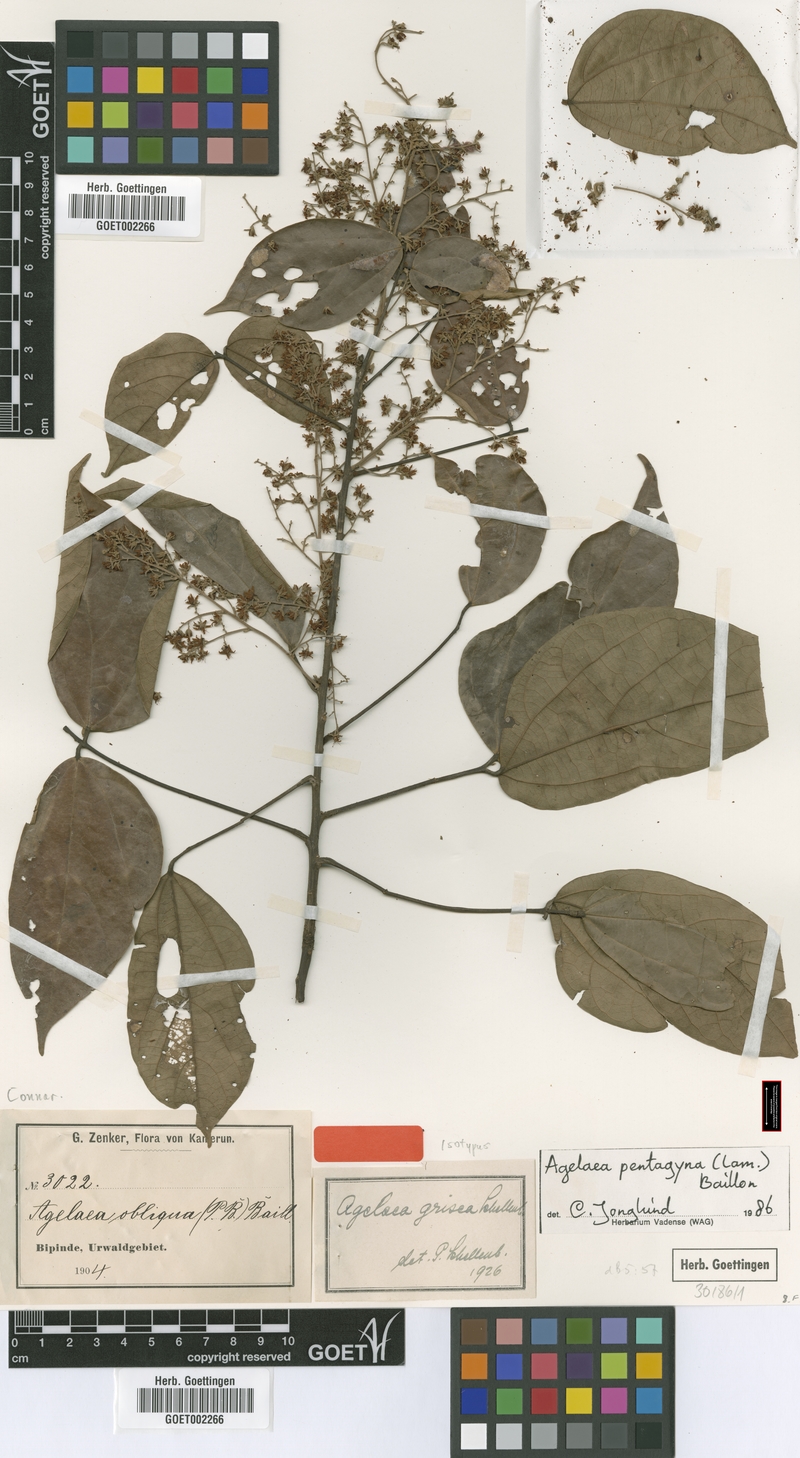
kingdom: Plantae
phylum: Tracheophyta
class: Magnoliopsida
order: Oxalidales
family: Connaraceae
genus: Agelaea
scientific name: Agelaea pentagyna
